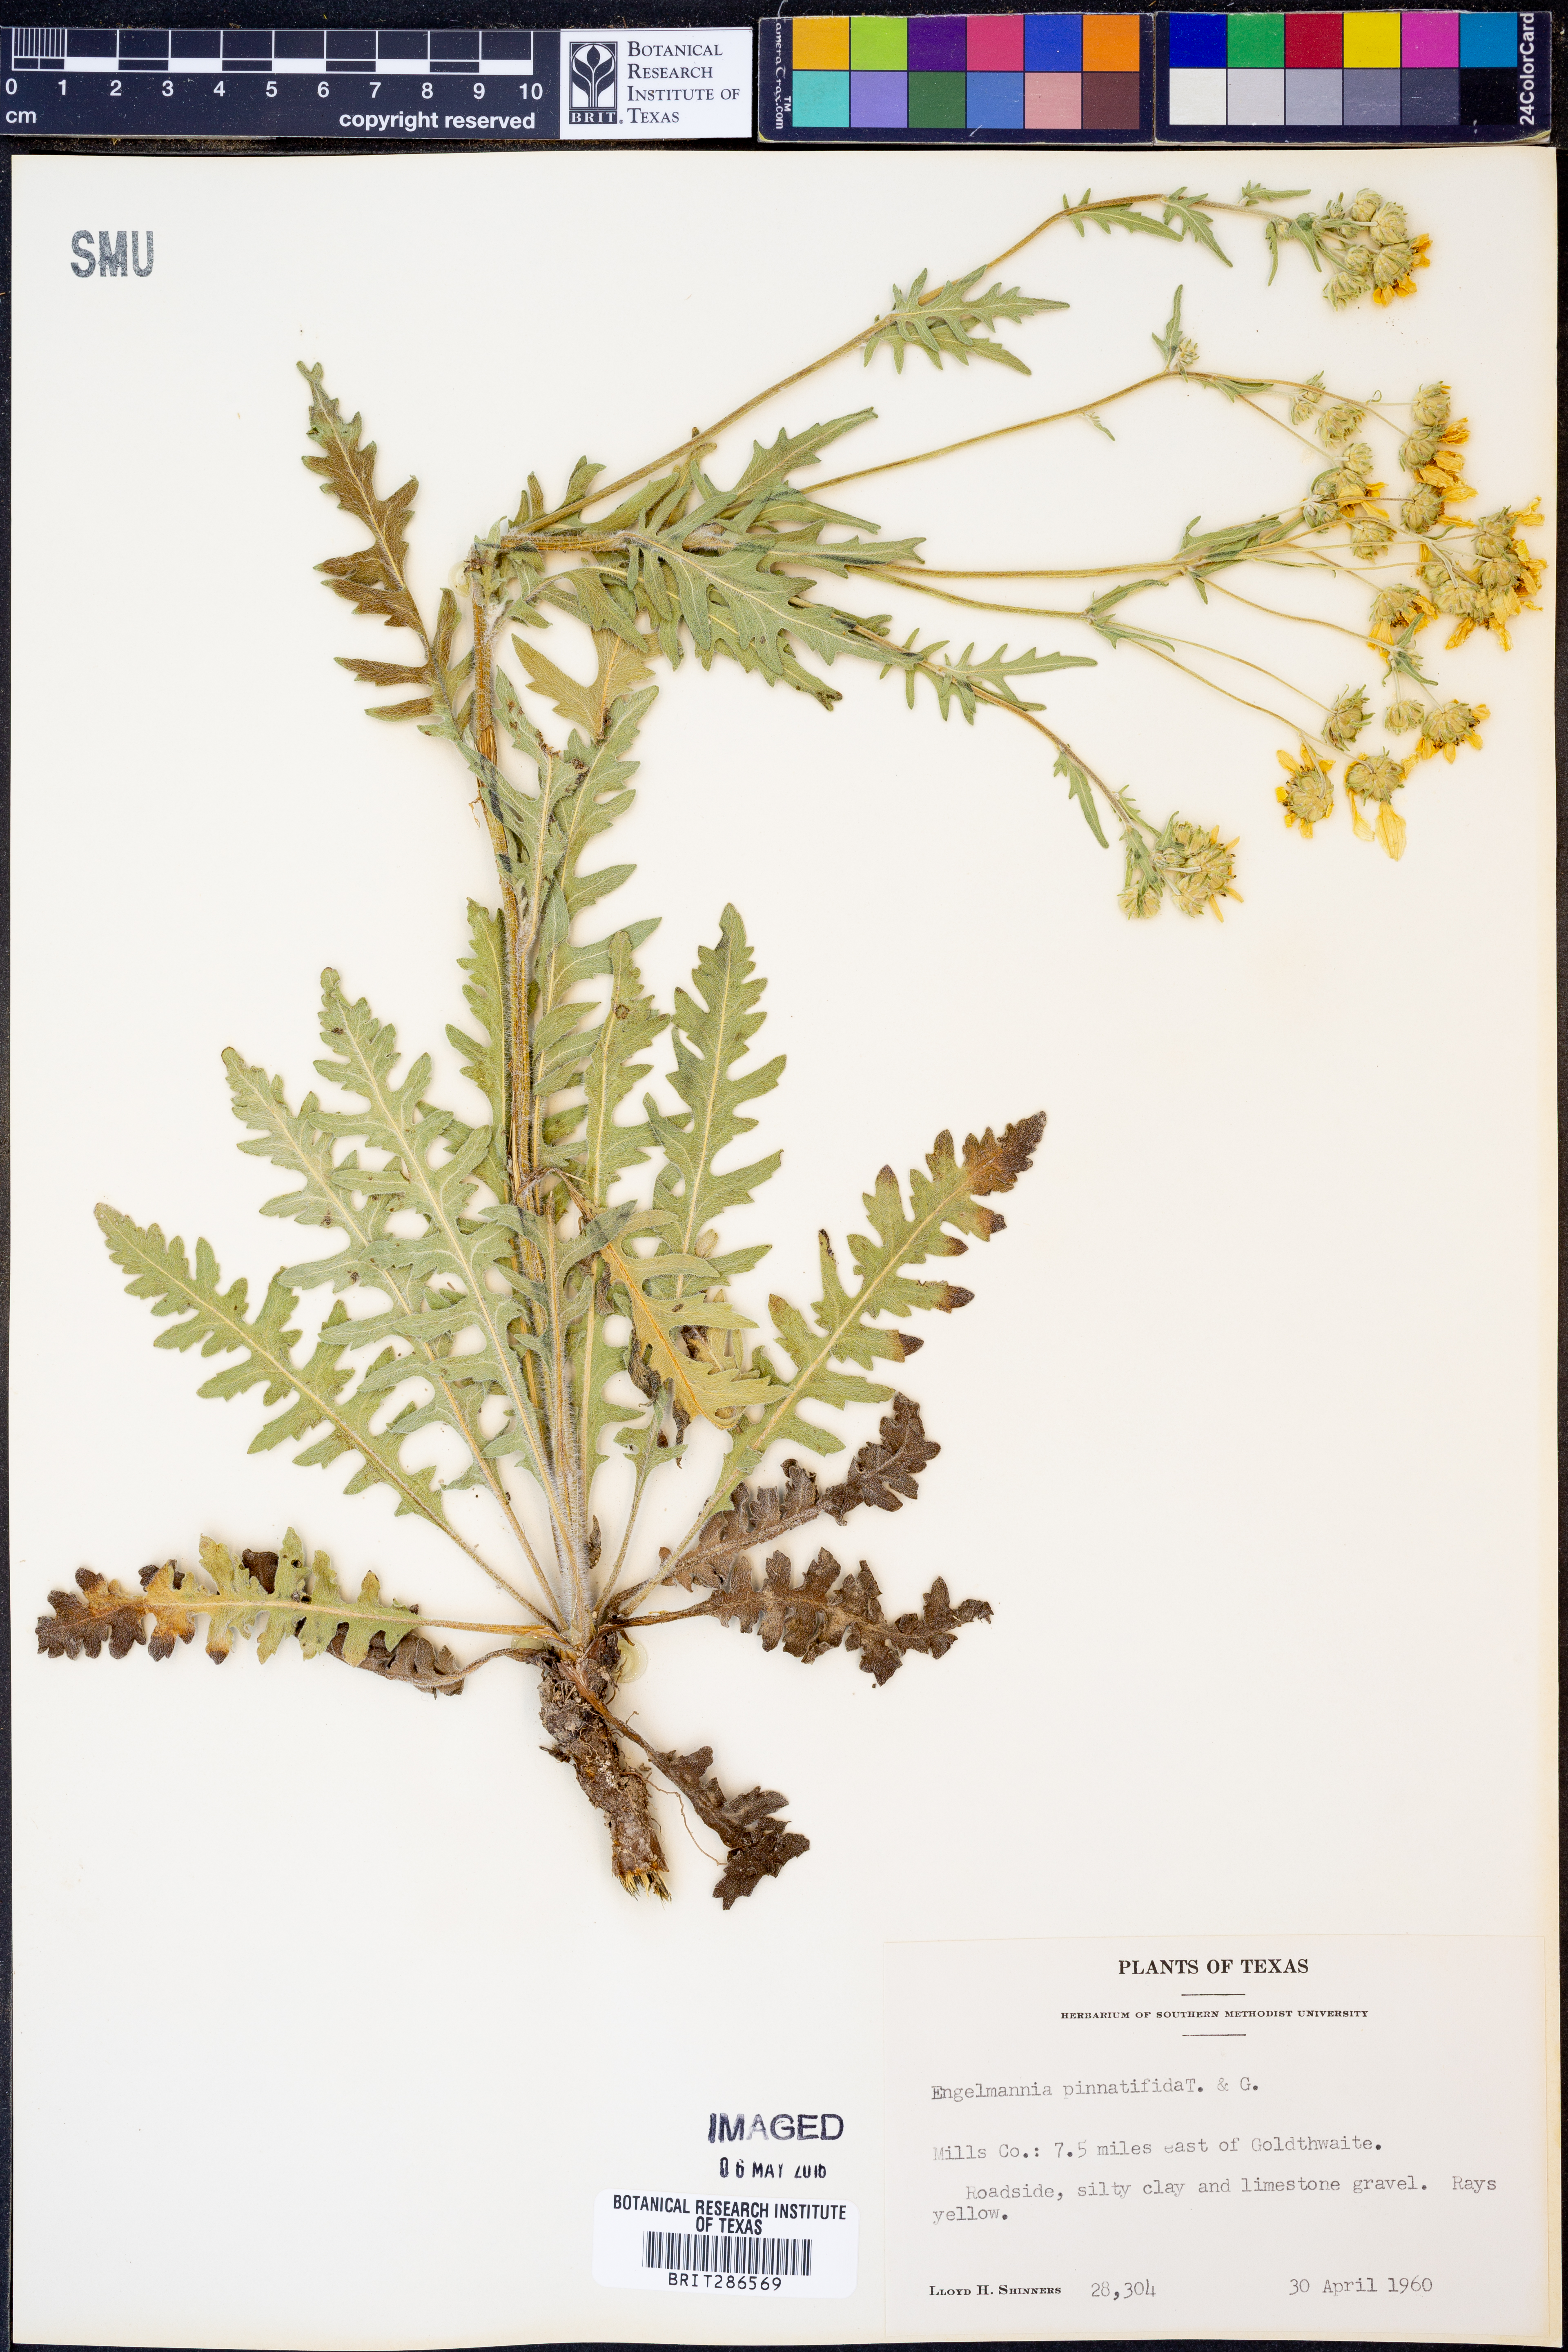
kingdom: Plantae
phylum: Tracheophyta
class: Magnoliopsida
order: Asterales
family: Asteraceae
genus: Engelmannia
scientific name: Engelmannia peristenia
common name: Engelmann's daisy
